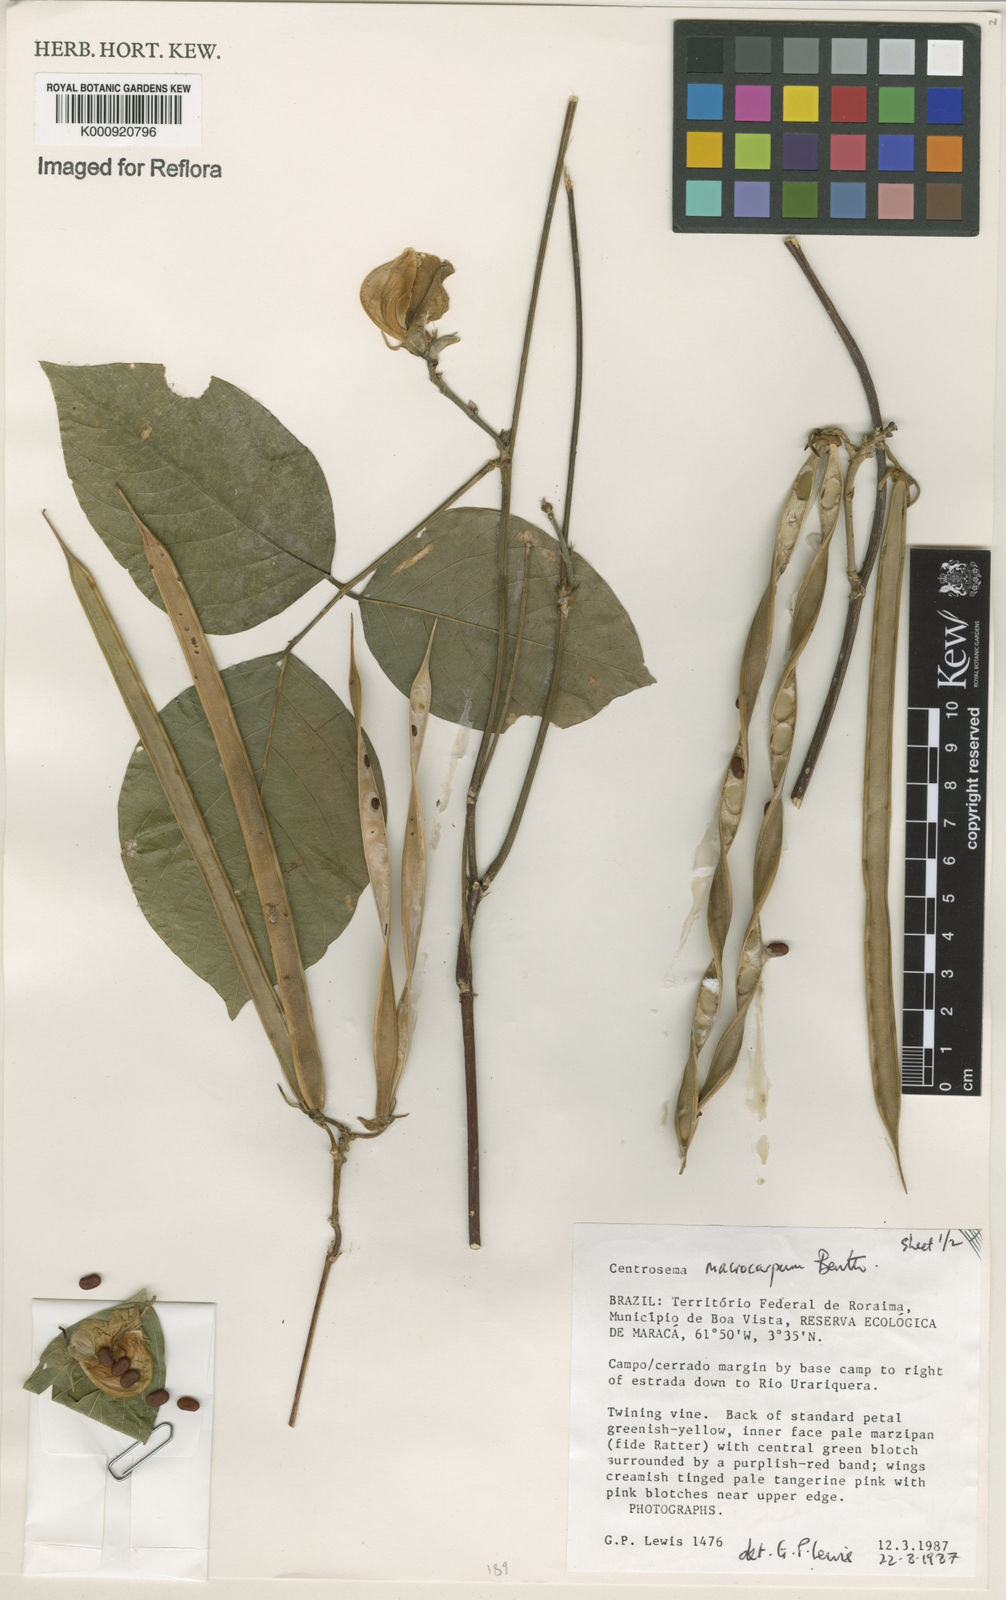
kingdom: Plantae
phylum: Tracheophyta
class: Magnoliopsida
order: Fabales
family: Fabaceae
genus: Centrosema
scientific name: Centrosema macrocarpum
